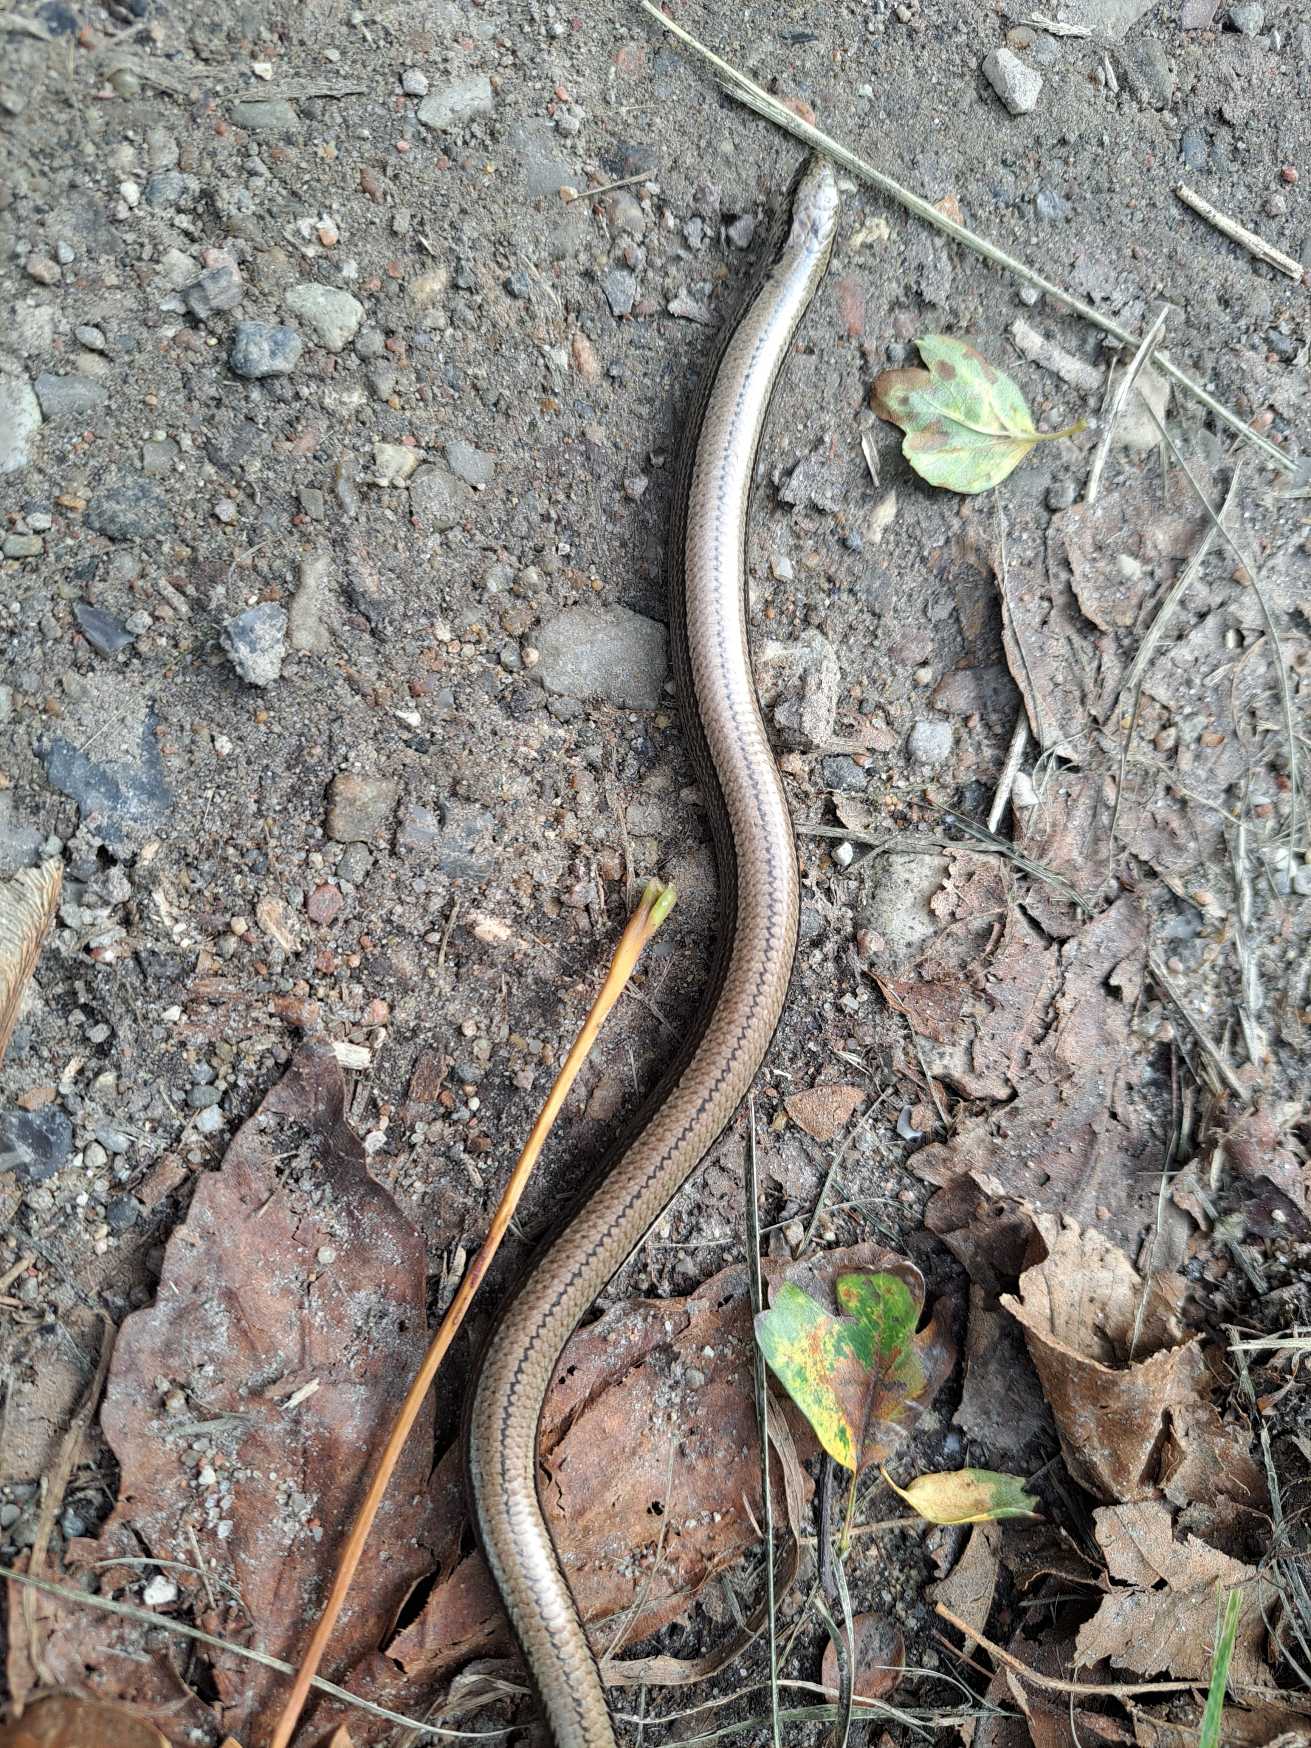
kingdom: Animalia
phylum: Chordata
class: Squamata
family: Anguidae
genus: Anguis
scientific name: Anguis fragilis
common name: Stålorm
